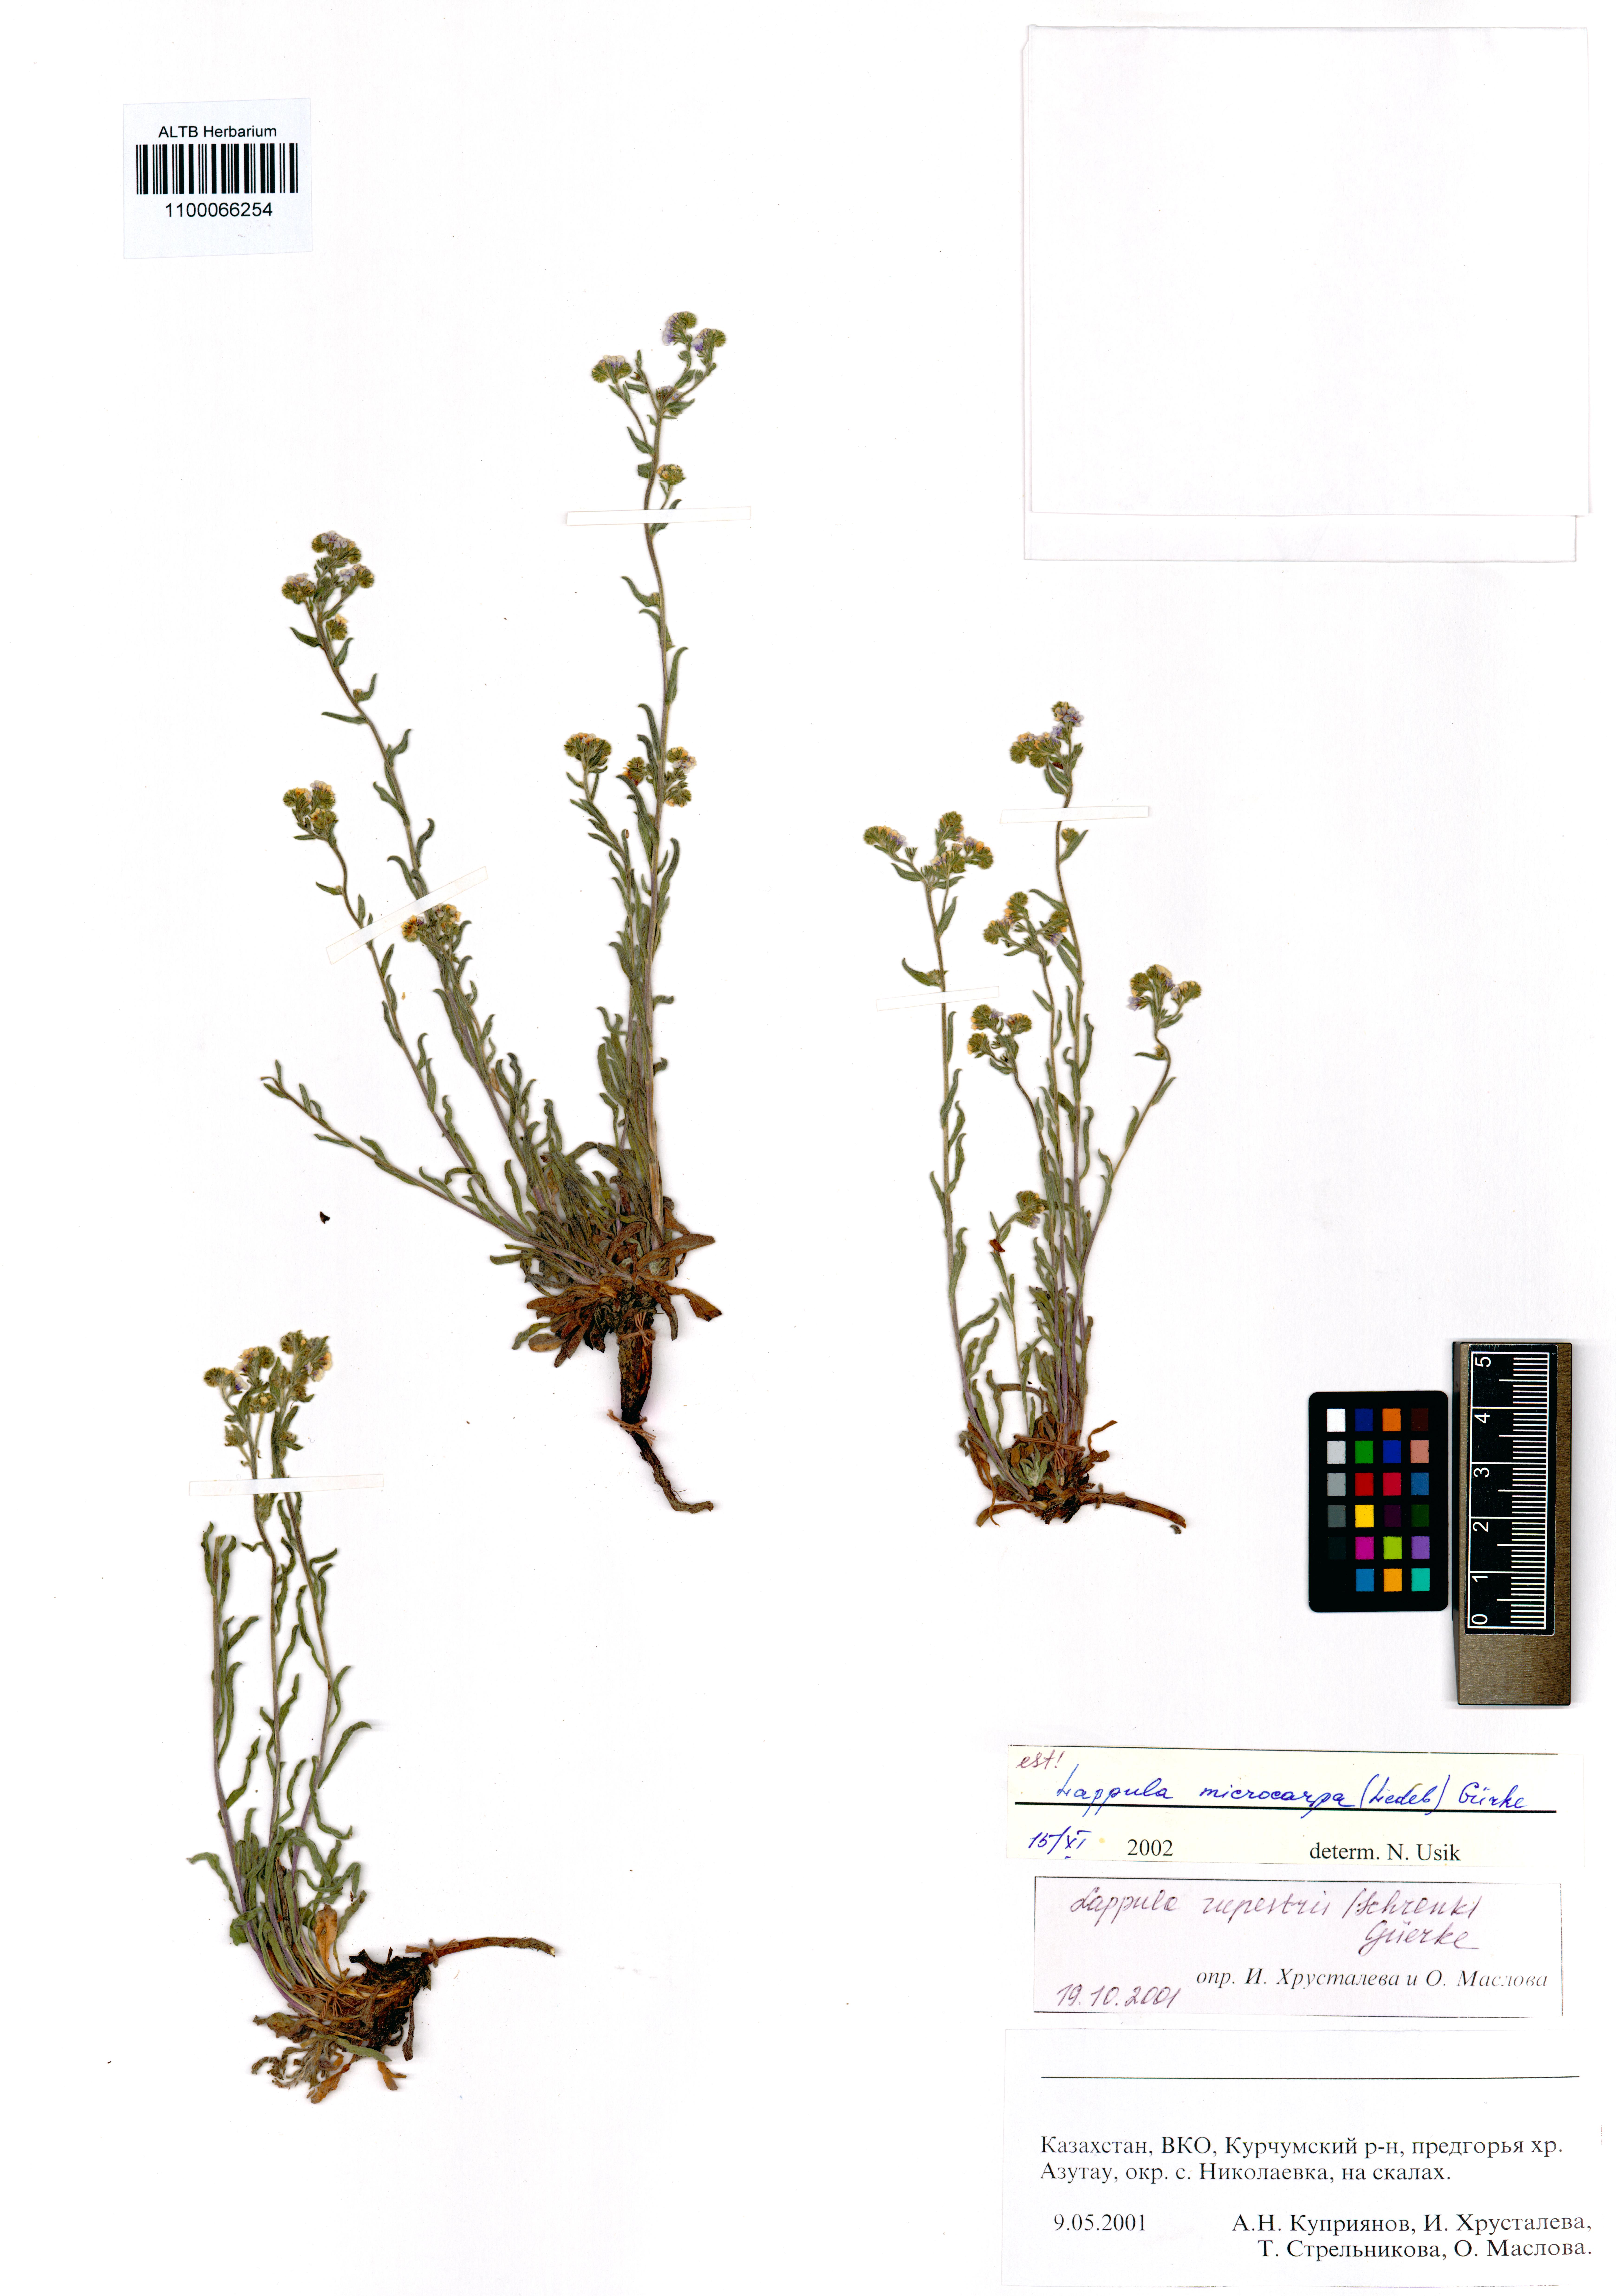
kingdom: Plantae
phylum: Tracheophyta
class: Magnoliopsida
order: Boraginales
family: Boraginaceae
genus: Lappula
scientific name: Lappula microcarpa
